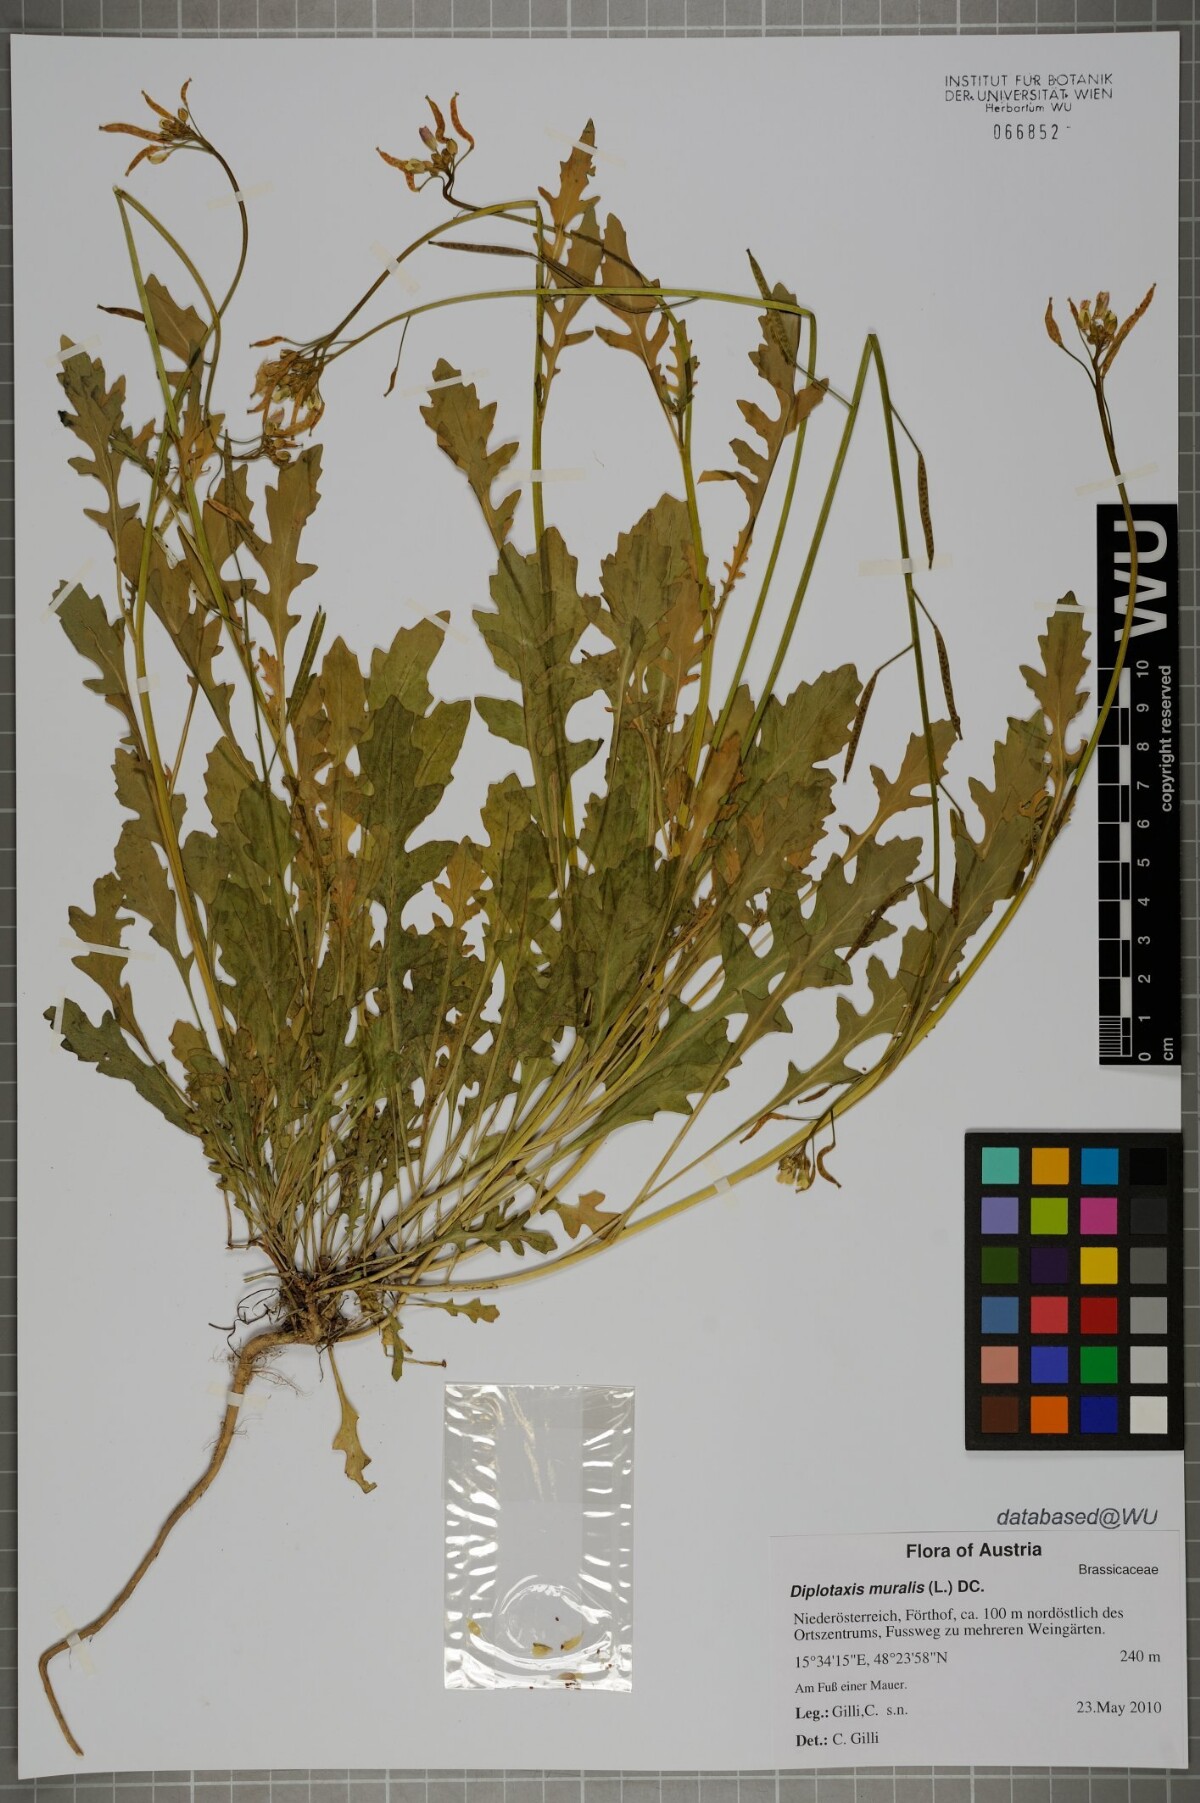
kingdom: Plantae
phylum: Tracheophyta
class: Magnoliopsida
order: Brassicales
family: Brassicaceae
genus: Diplotaxis
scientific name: Diplotaxis muralis
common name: Annual wall-rocket
